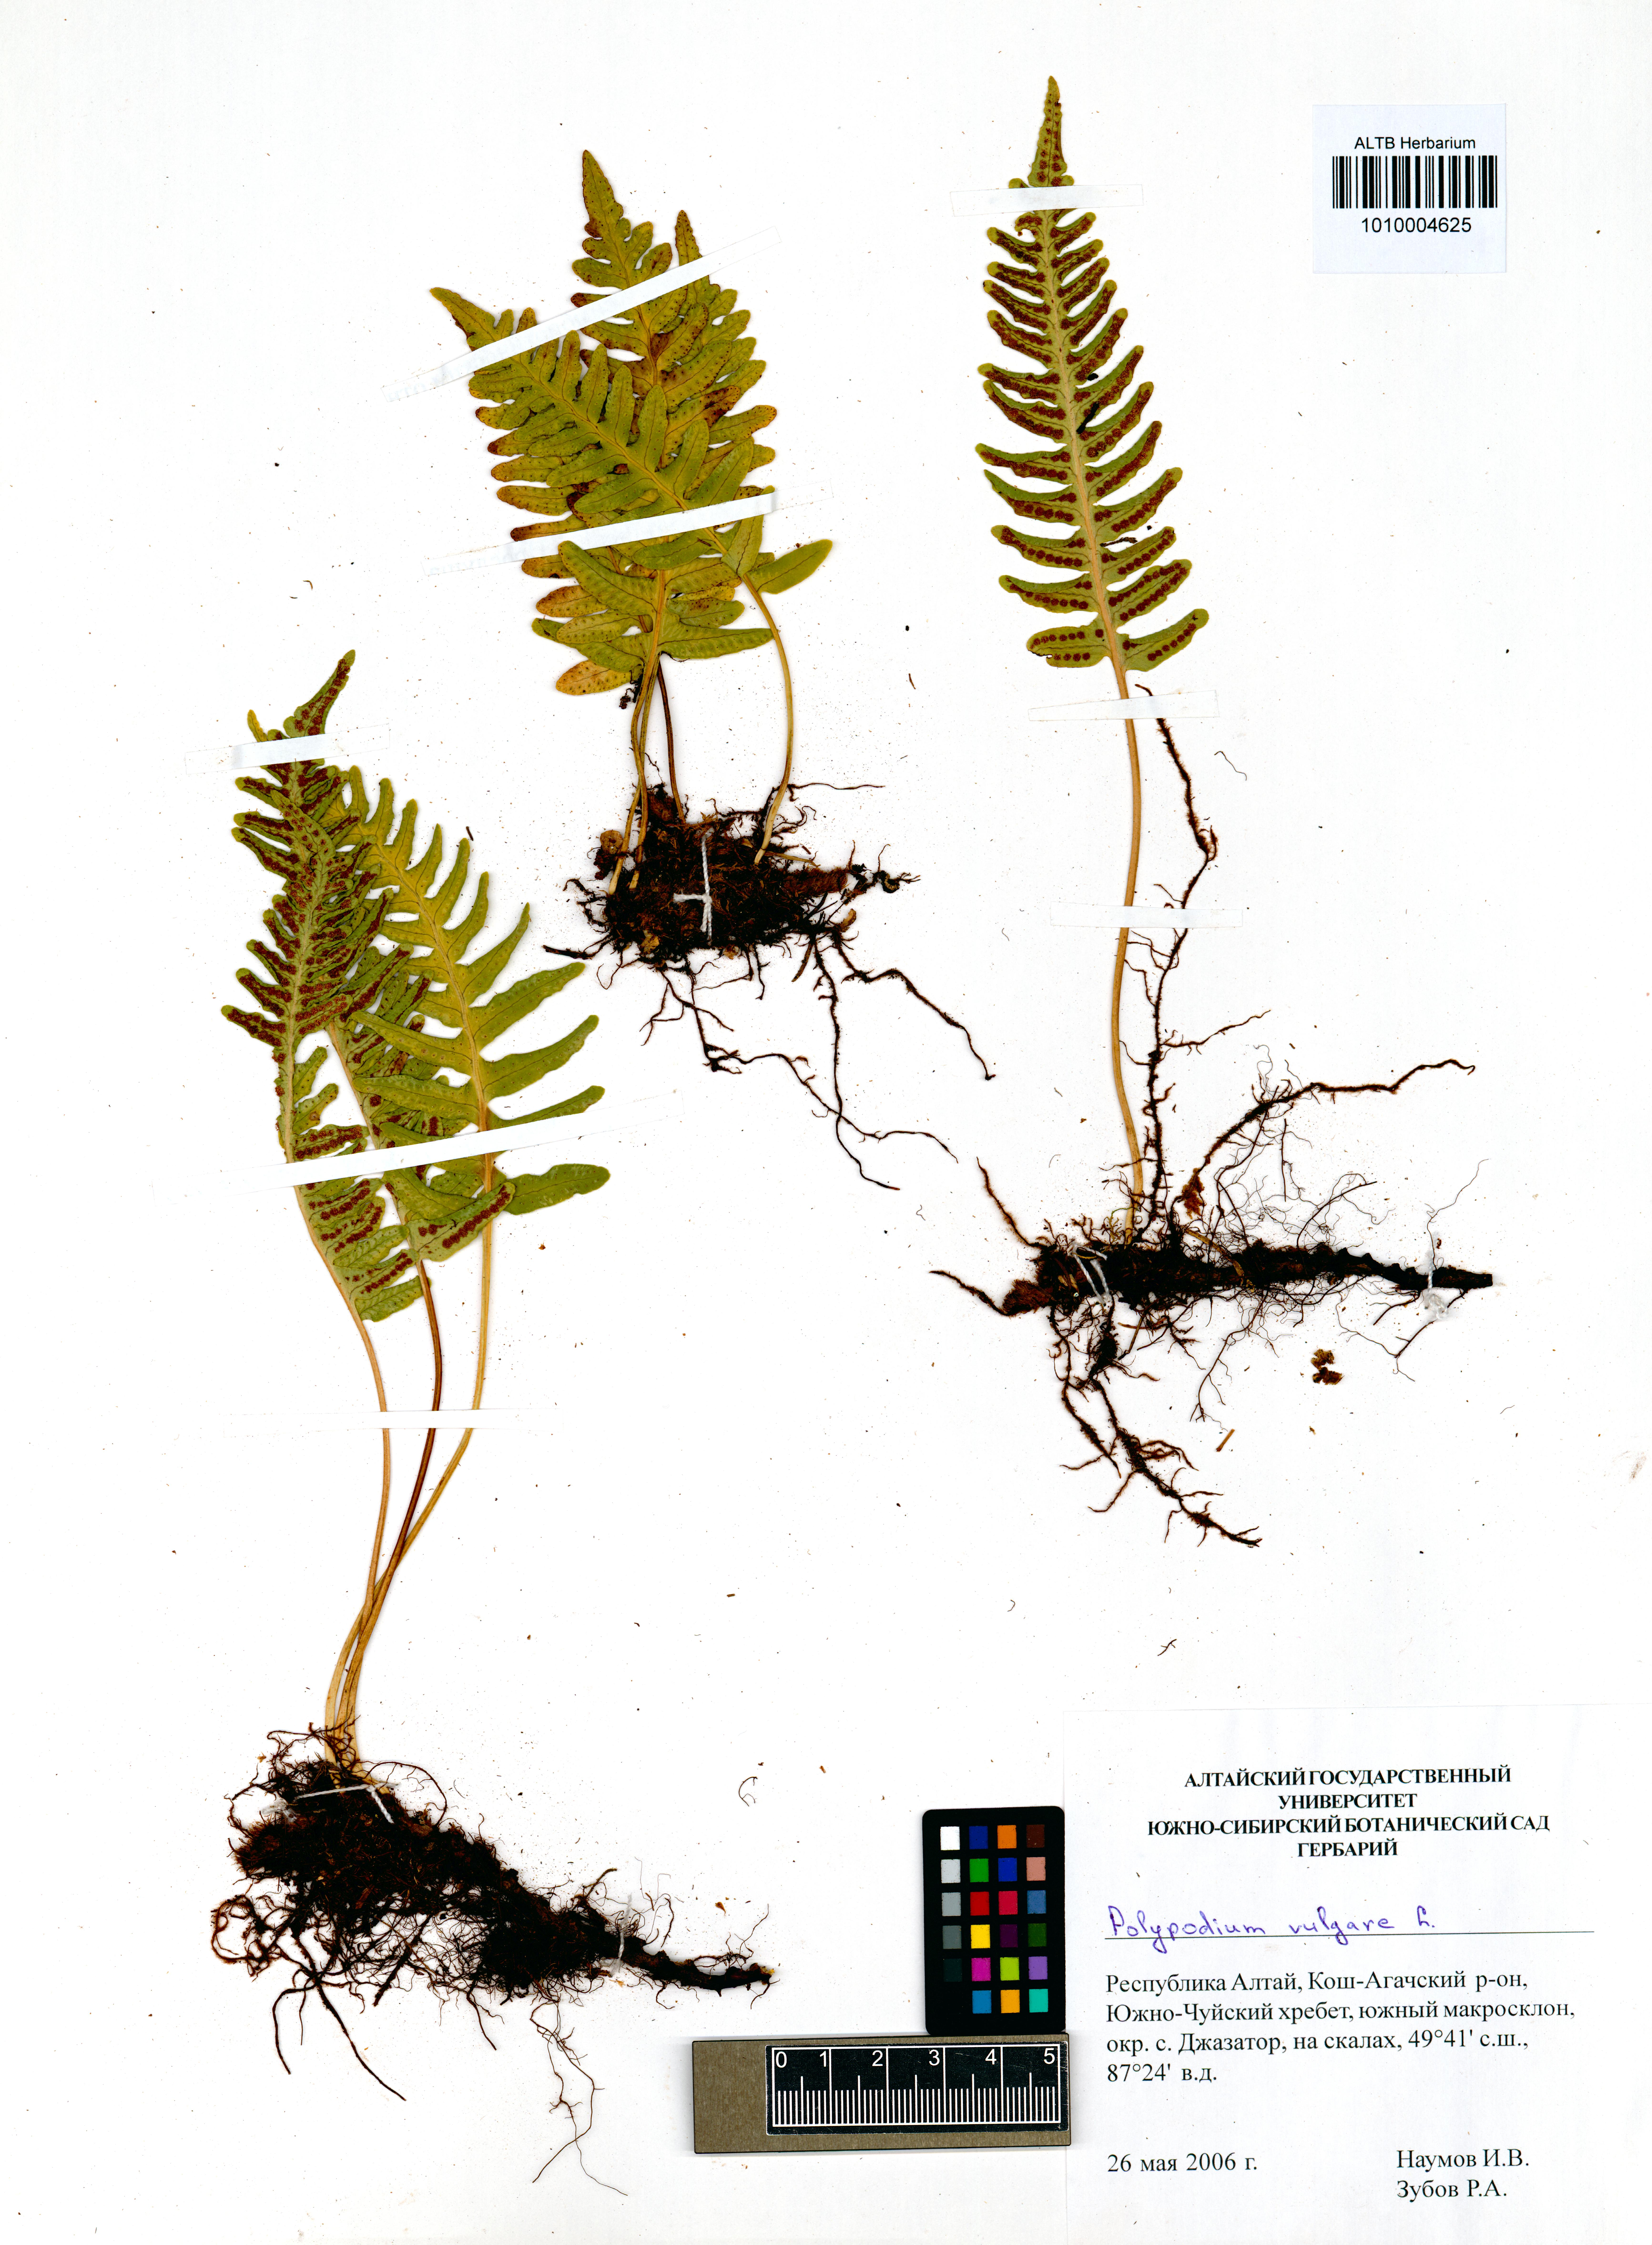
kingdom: Plantae
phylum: Tracheophyta
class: Polypodiopsida
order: Polypodiales
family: Polypodiaceae
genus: Polypodium
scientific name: Polypodium vulgare
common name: Common polypody
